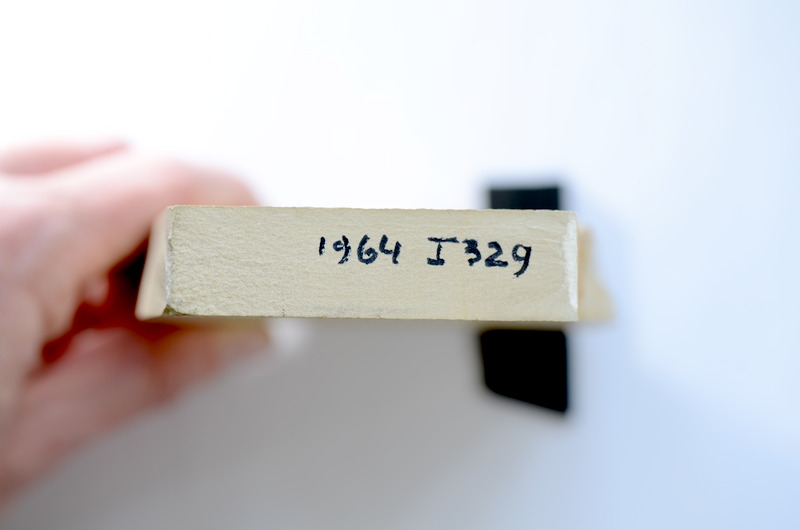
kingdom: Animalia
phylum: Chordata
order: Elopiformes
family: Anaethalionidae
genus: Anaethalion
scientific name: Anaethalion knorri
